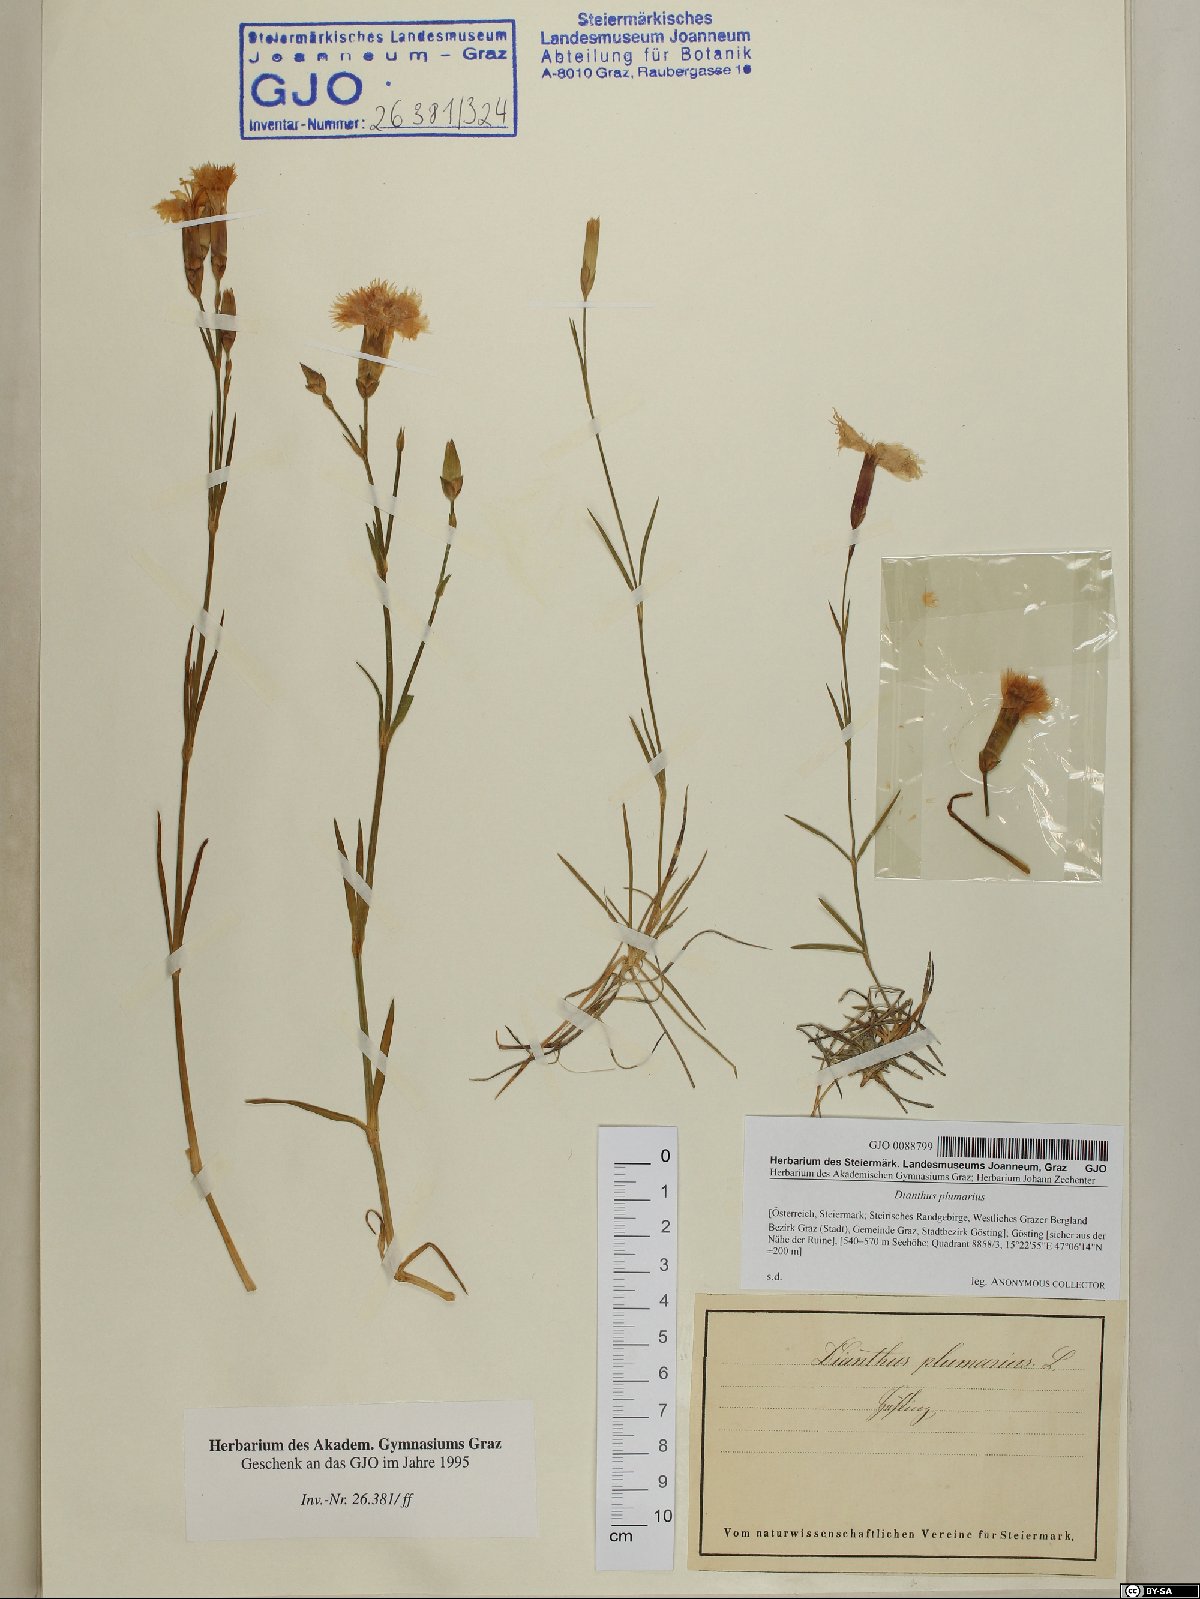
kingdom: Plantae
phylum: Tracheophyta
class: Magnoliopsida
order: Caryophyllales
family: Caryophyllaceae
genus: Dianthus
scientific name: Dianthus plumarius
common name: Pink
